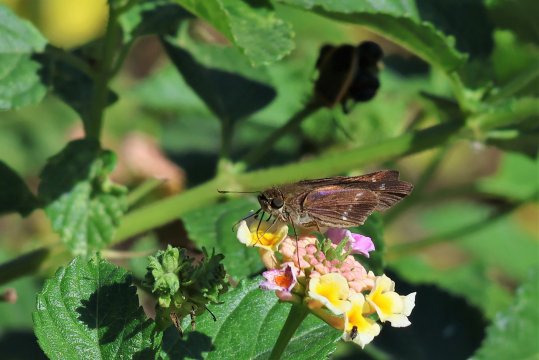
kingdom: Animalia
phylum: Arthropoda
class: Insecta
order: Lepidoptera
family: Hesperiidae
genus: Turesis
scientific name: Turesis lucas
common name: Purple-washed Skipper
